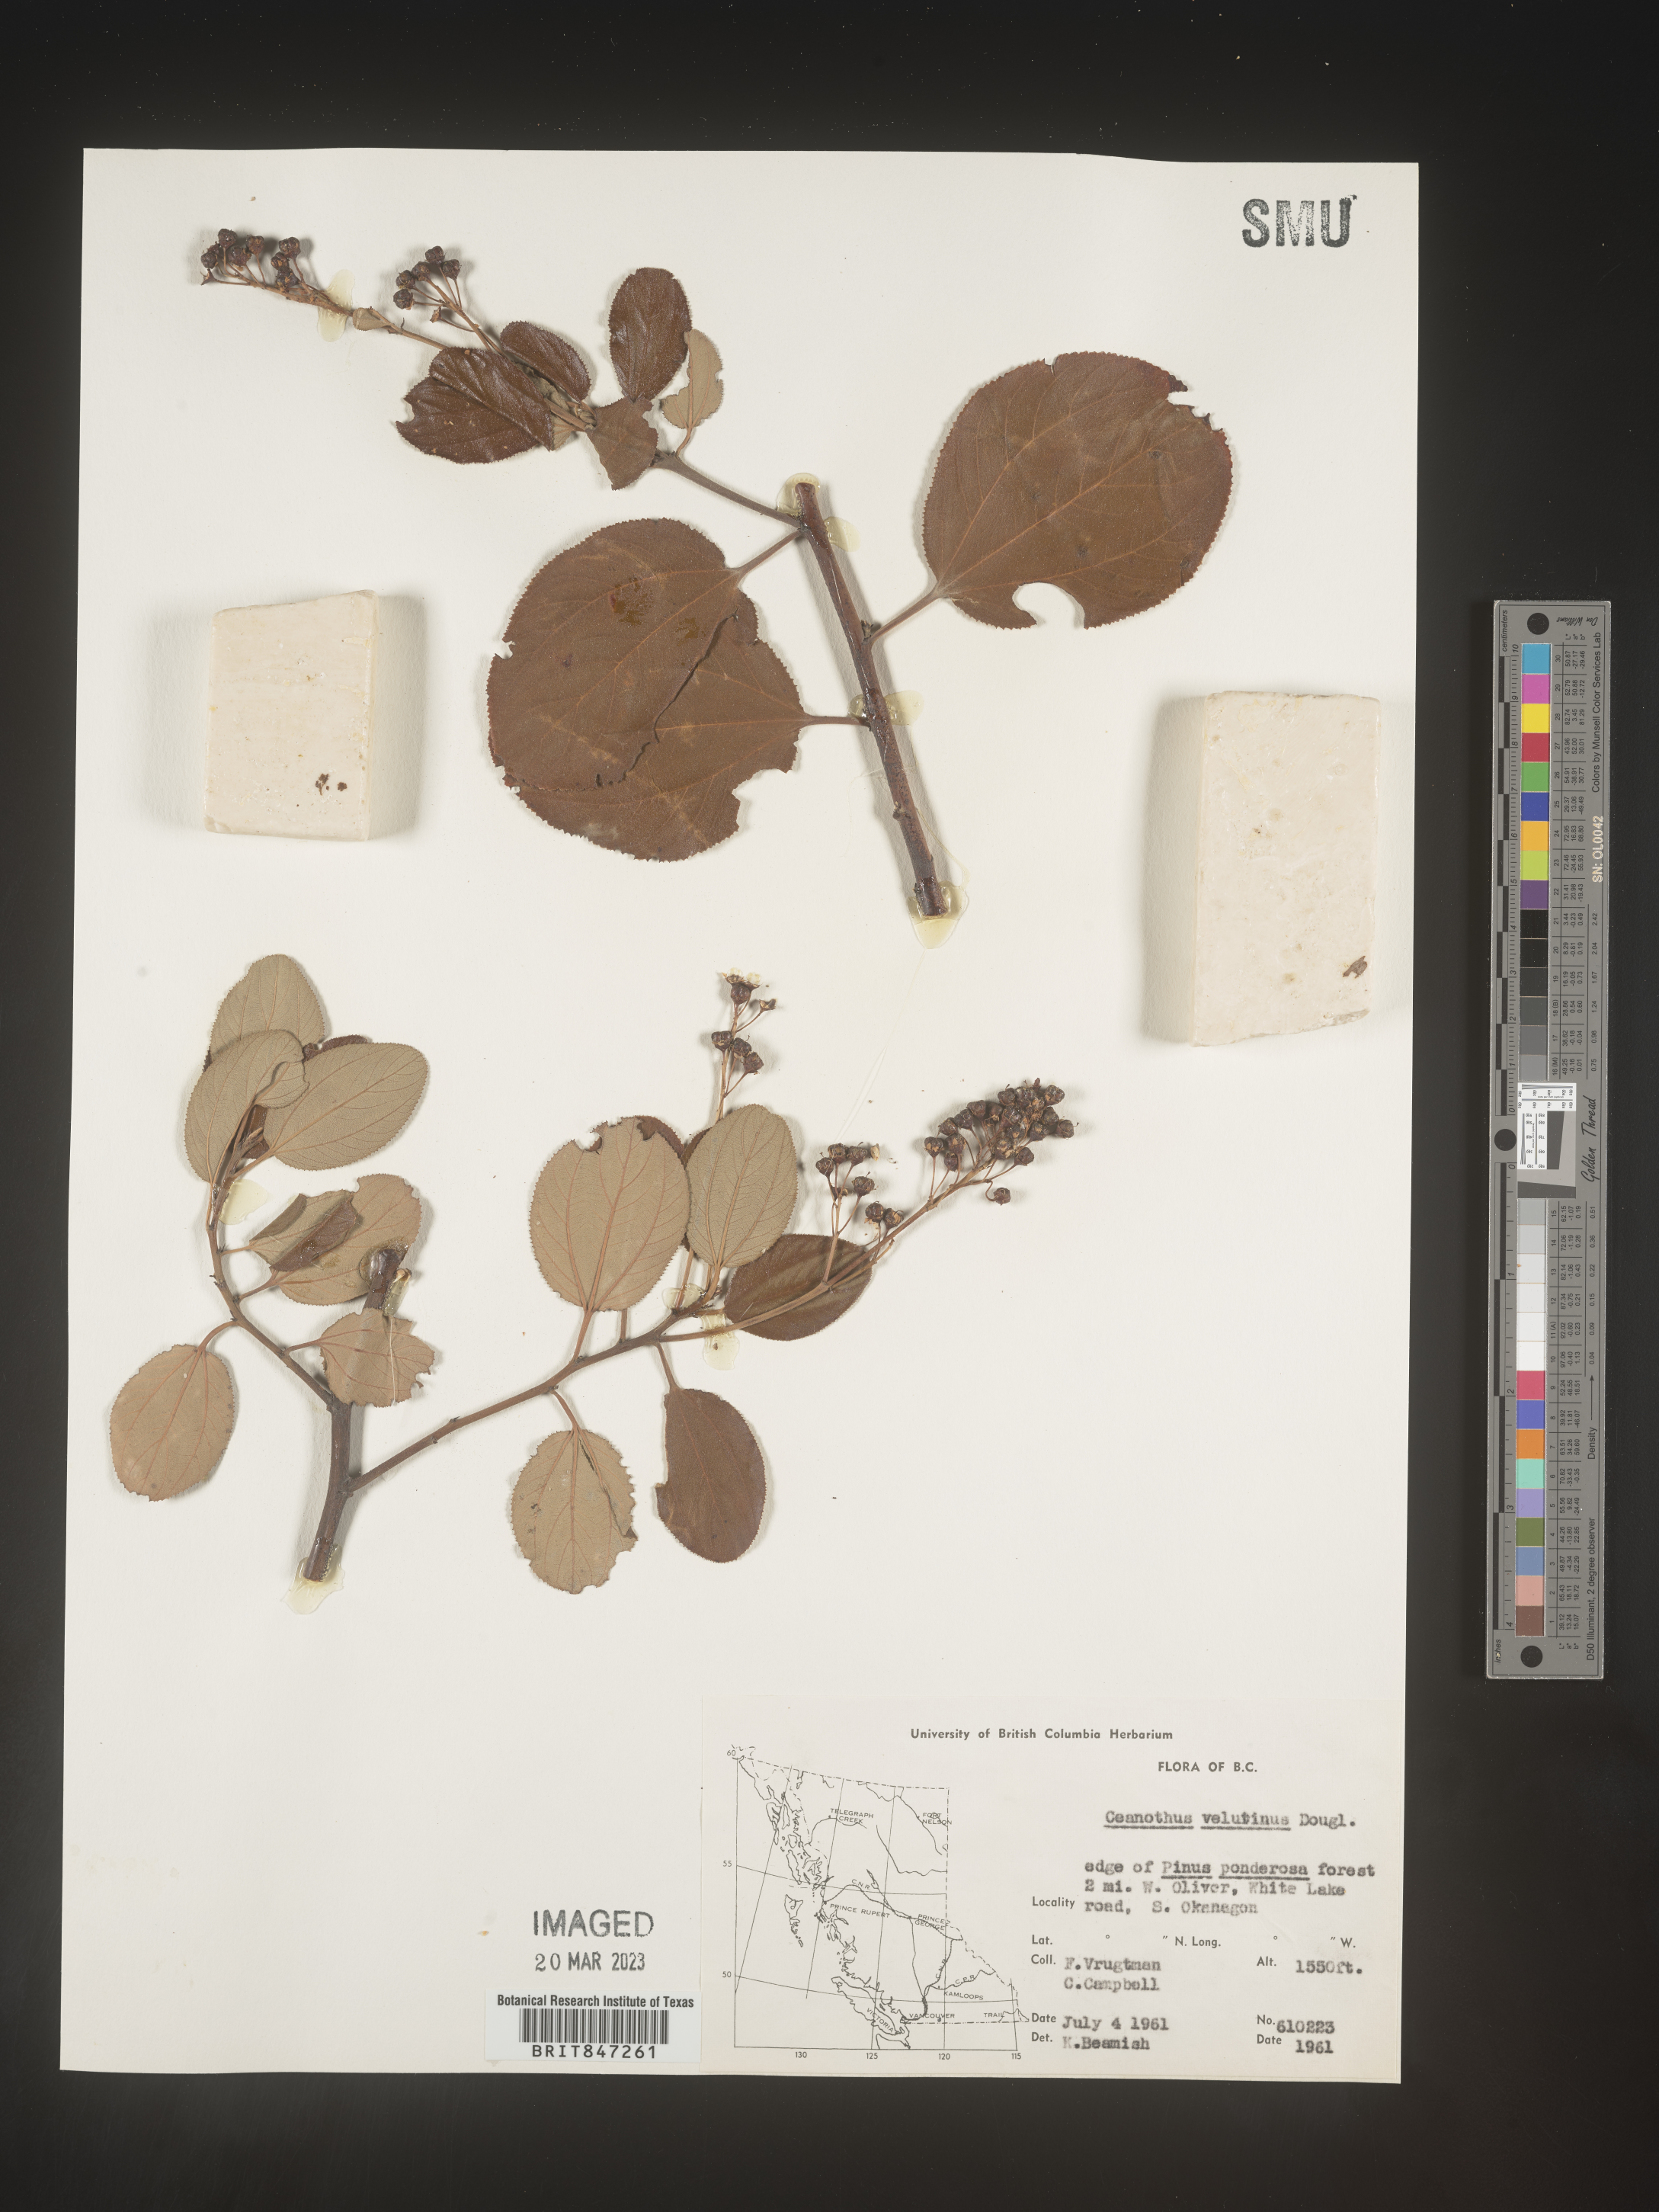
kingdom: Plantae
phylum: Tracheophyta
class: Magnoliopsida
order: Rosales
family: Rhamnaceae
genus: Ceanothus
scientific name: Ceanothus velutinus
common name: Snowbrush
